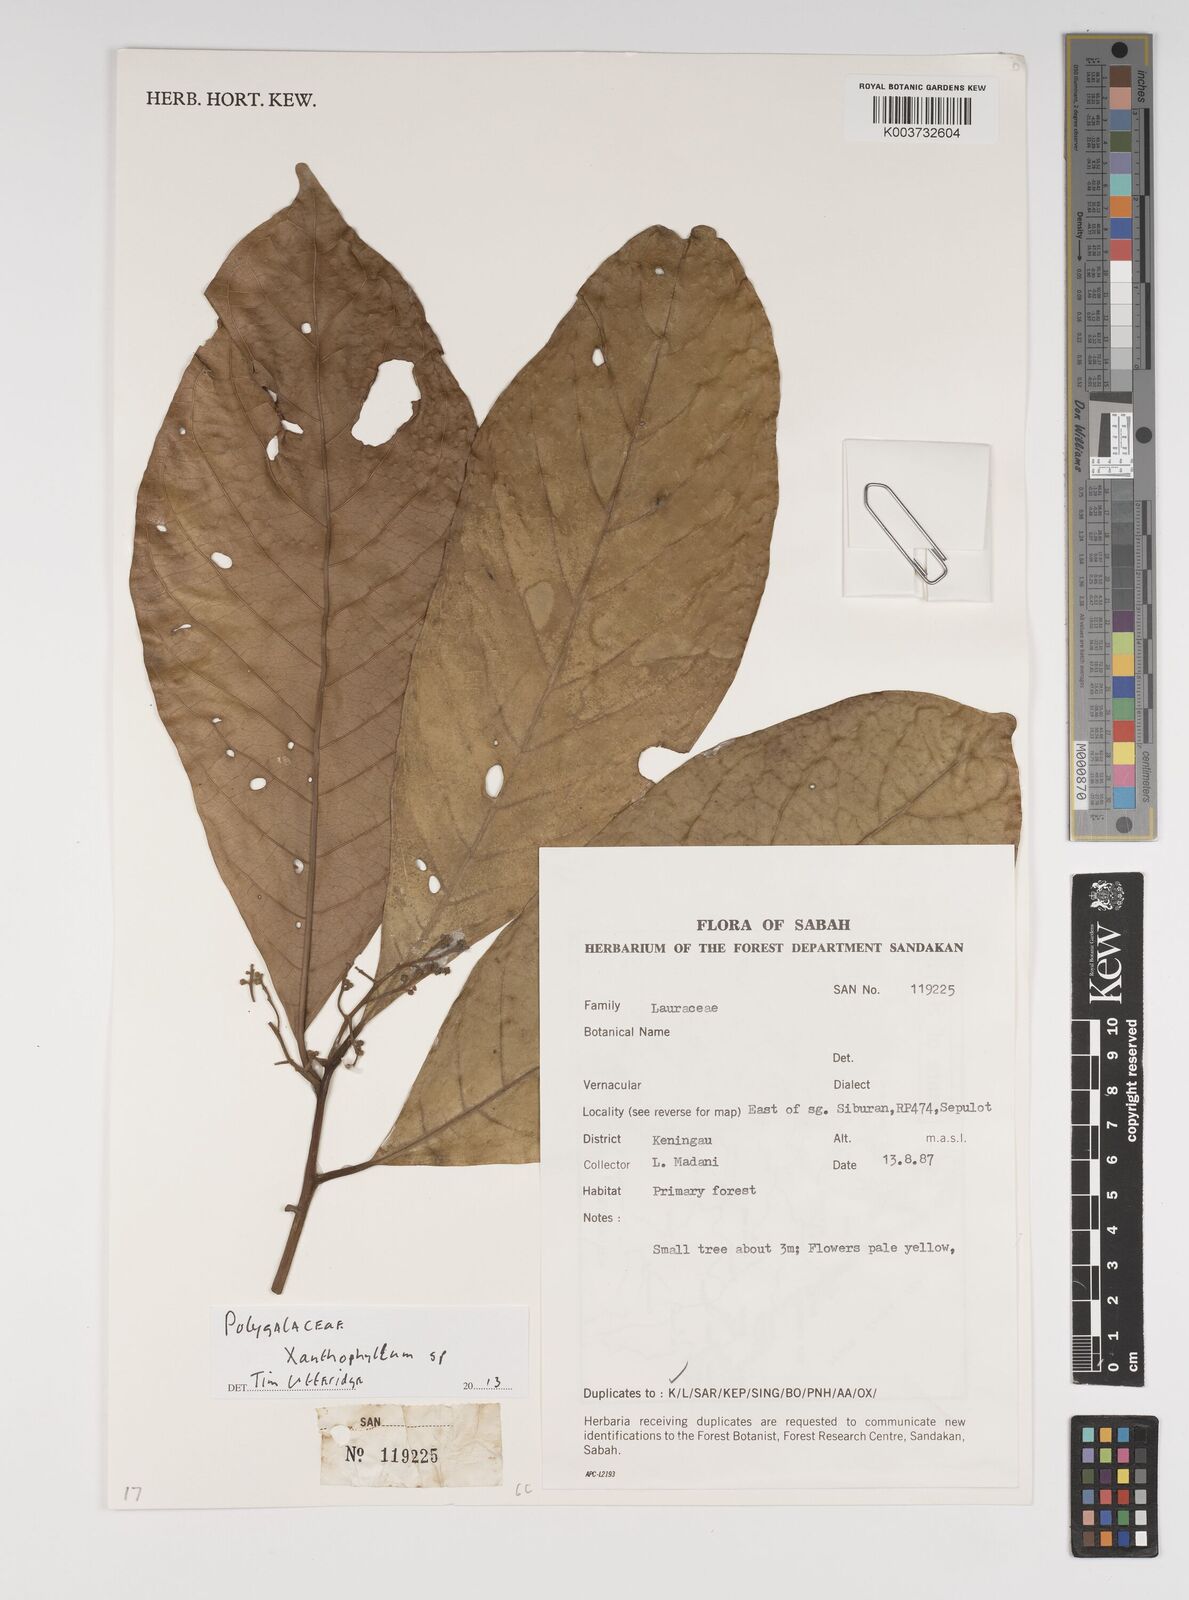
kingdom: Plantae
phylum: Tracheophyta
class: Magnoliopsida
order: Fabales
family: Polygalaceae
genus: Xanthophyllum
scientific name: Xanthophyllum
